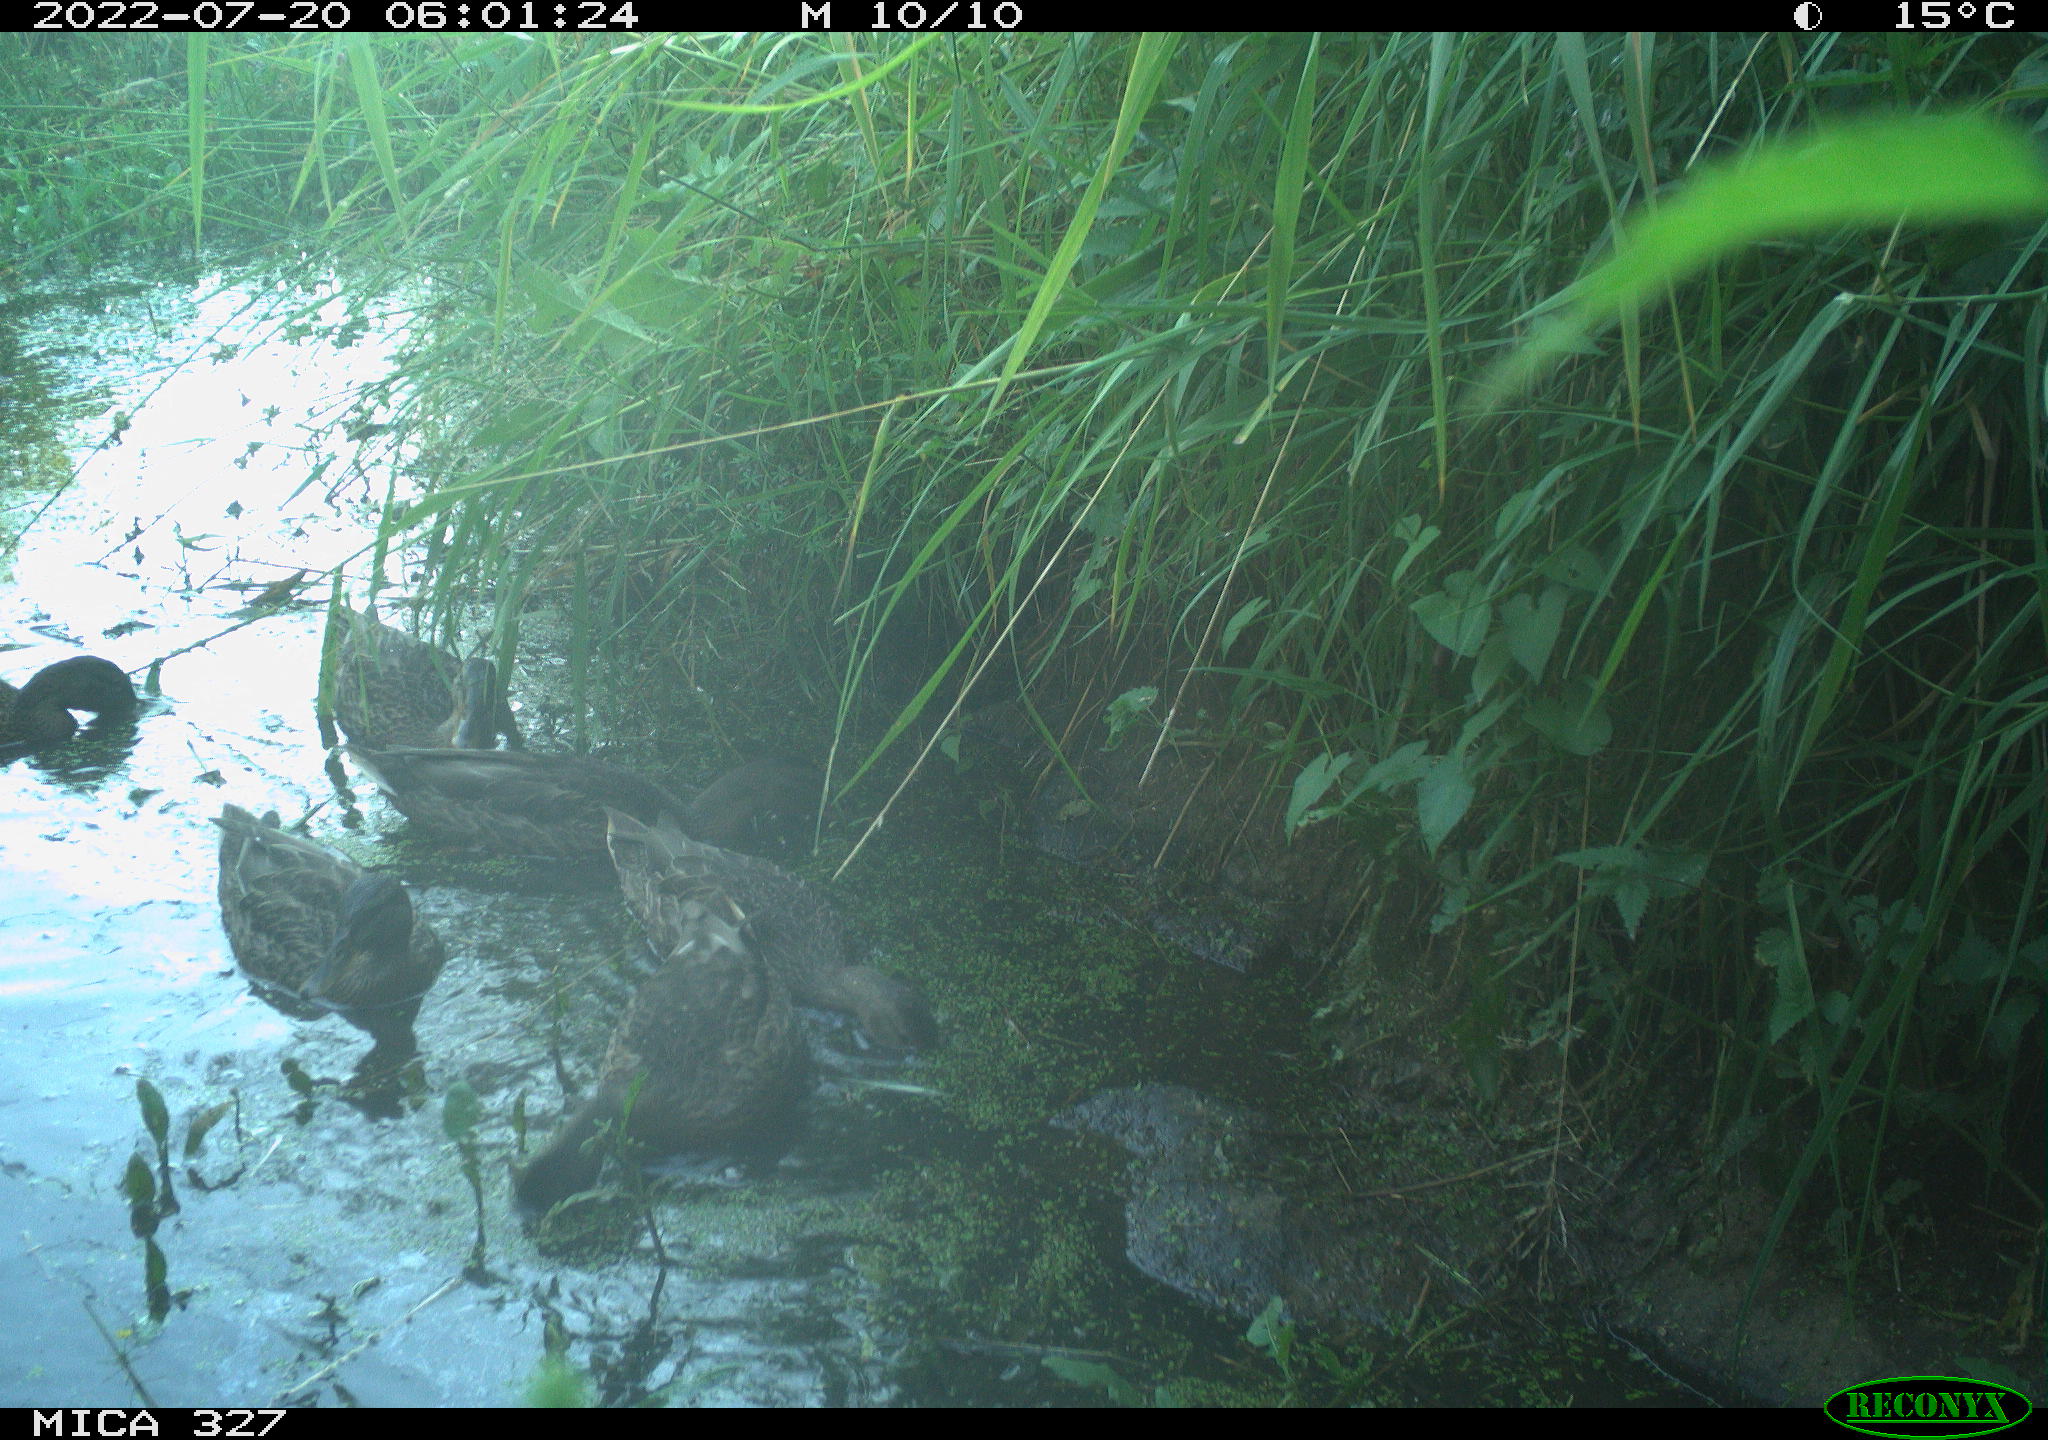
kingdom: Animalia
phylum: Chordata
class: Aves
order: Anseriformes
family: Anatidae
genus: Anas
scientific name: Anas
